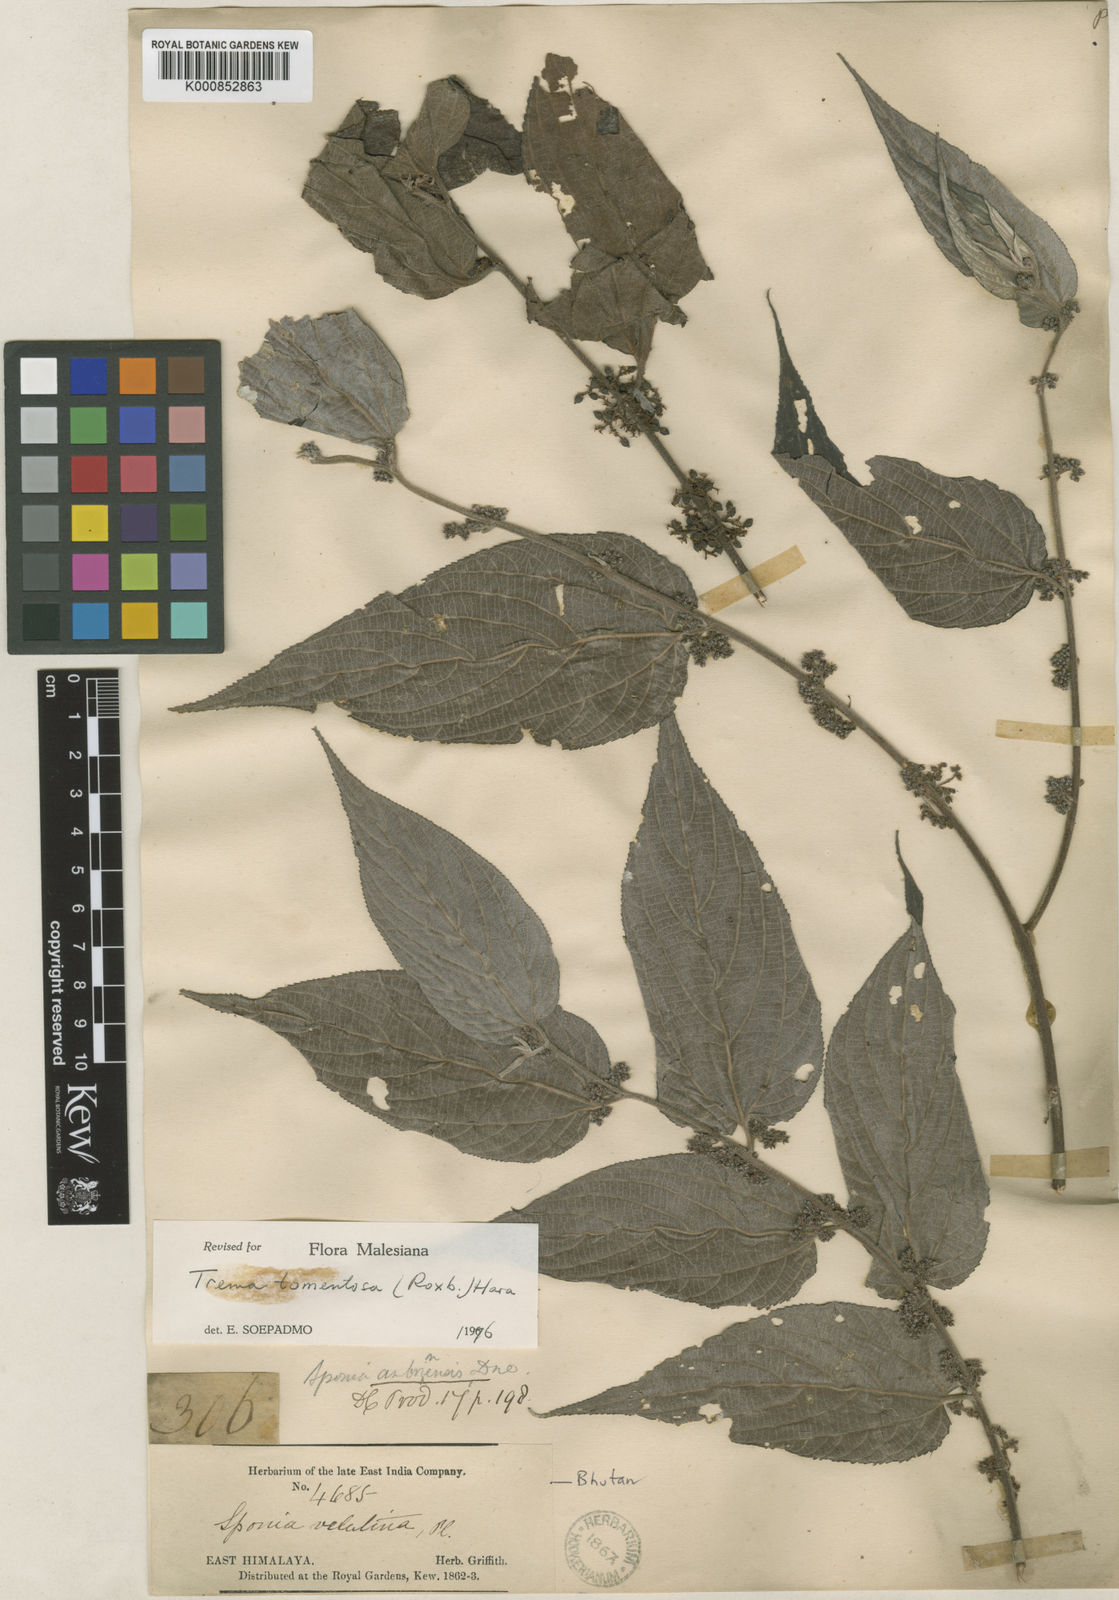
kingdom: Plantae
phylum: Tracheophyta
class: Magnoliopsida
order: Rosales
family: Cannabaceae
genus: Trema
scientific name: Trema tomentosum
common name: Peach-leaf-poisonbush
